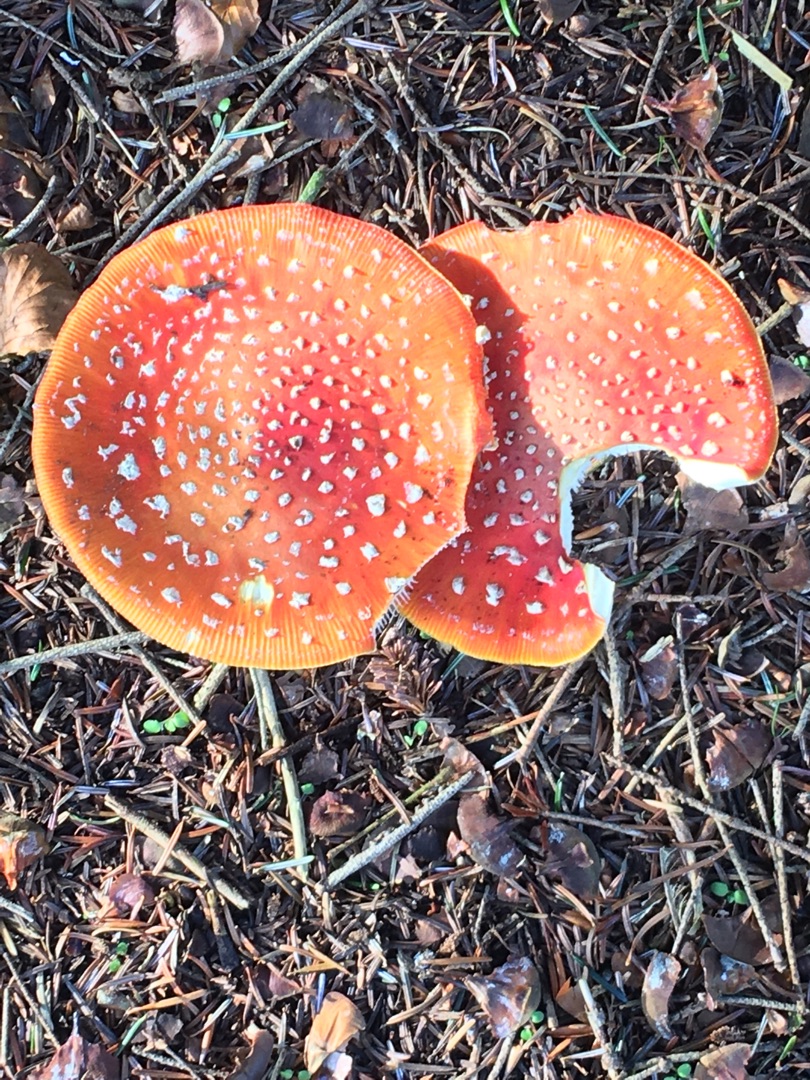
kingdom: Fungi
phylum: Basidiomycota
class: Agaricomycetes
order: Agaricales
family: Amanitaceae
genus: Amanita
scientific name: Amanita muscaria
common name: Rød fluesvamp
